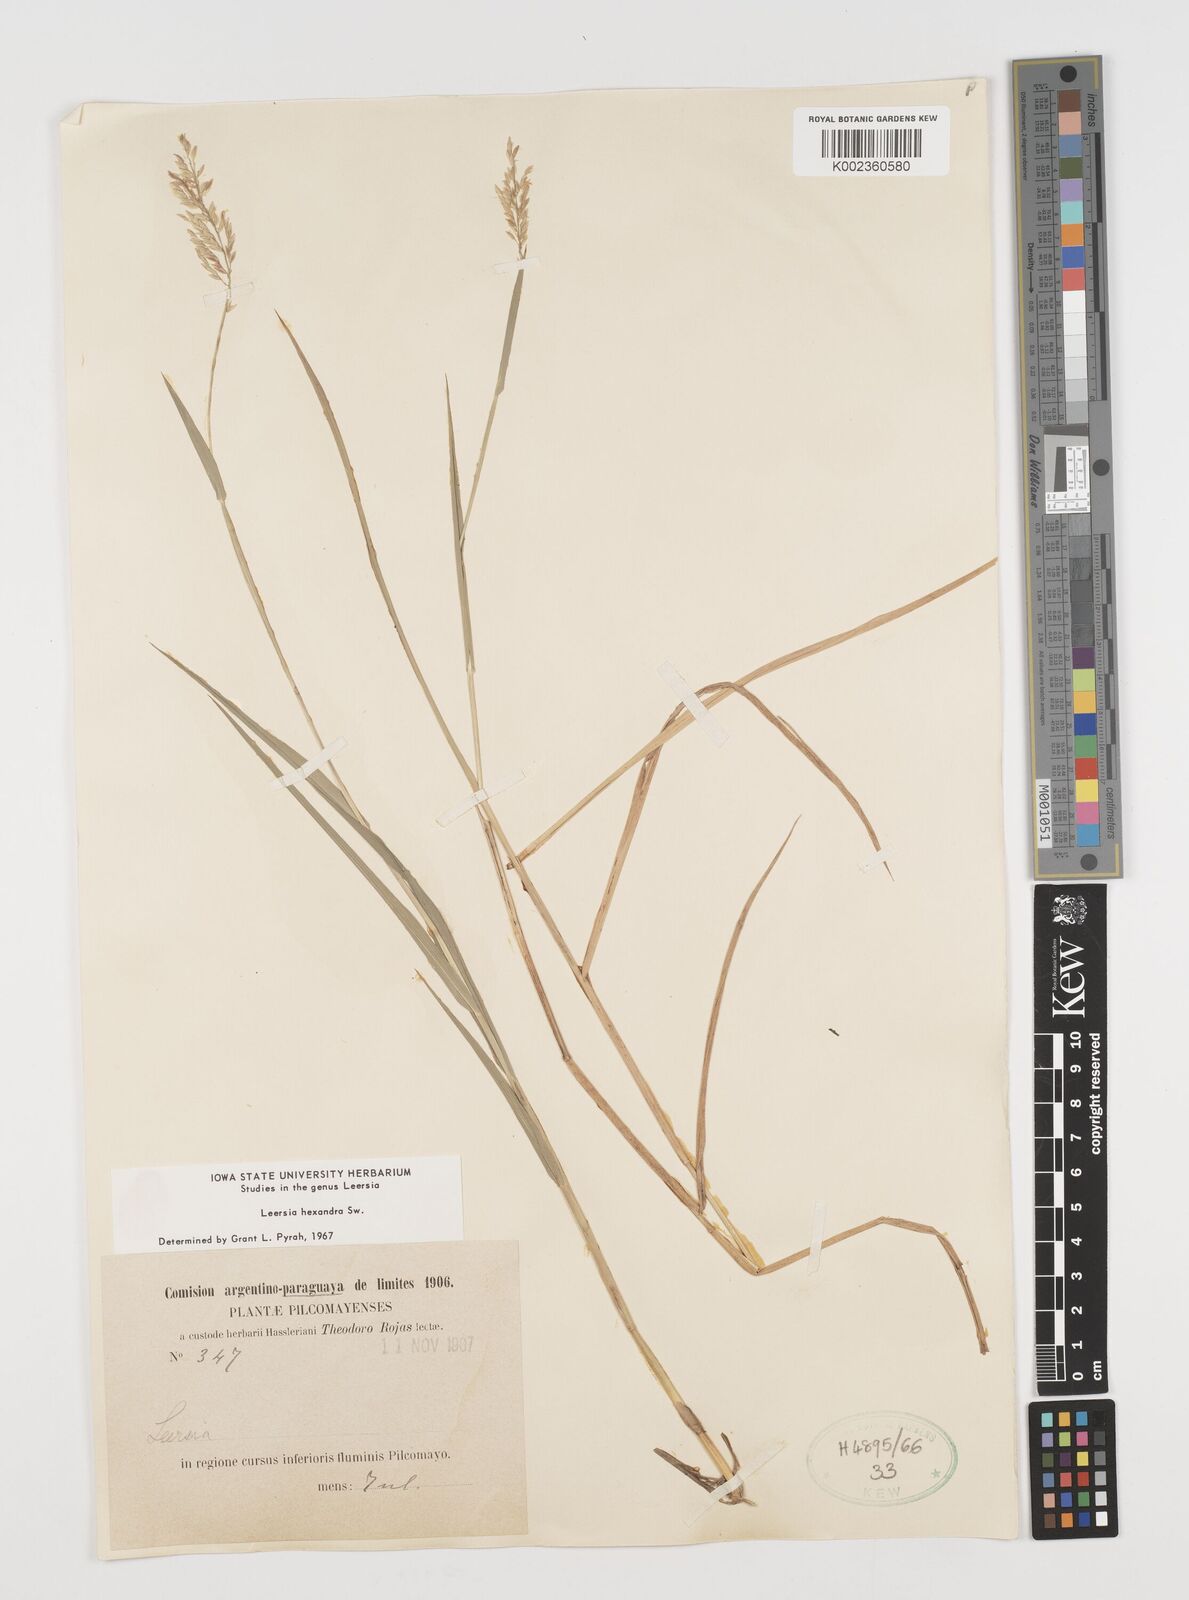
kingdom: Plantae
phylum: Tracheophyta
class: Liliopsida
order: Poales
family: Poaceae
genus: Leersia
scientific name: Leersia hexandra
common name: Southern cut grass
